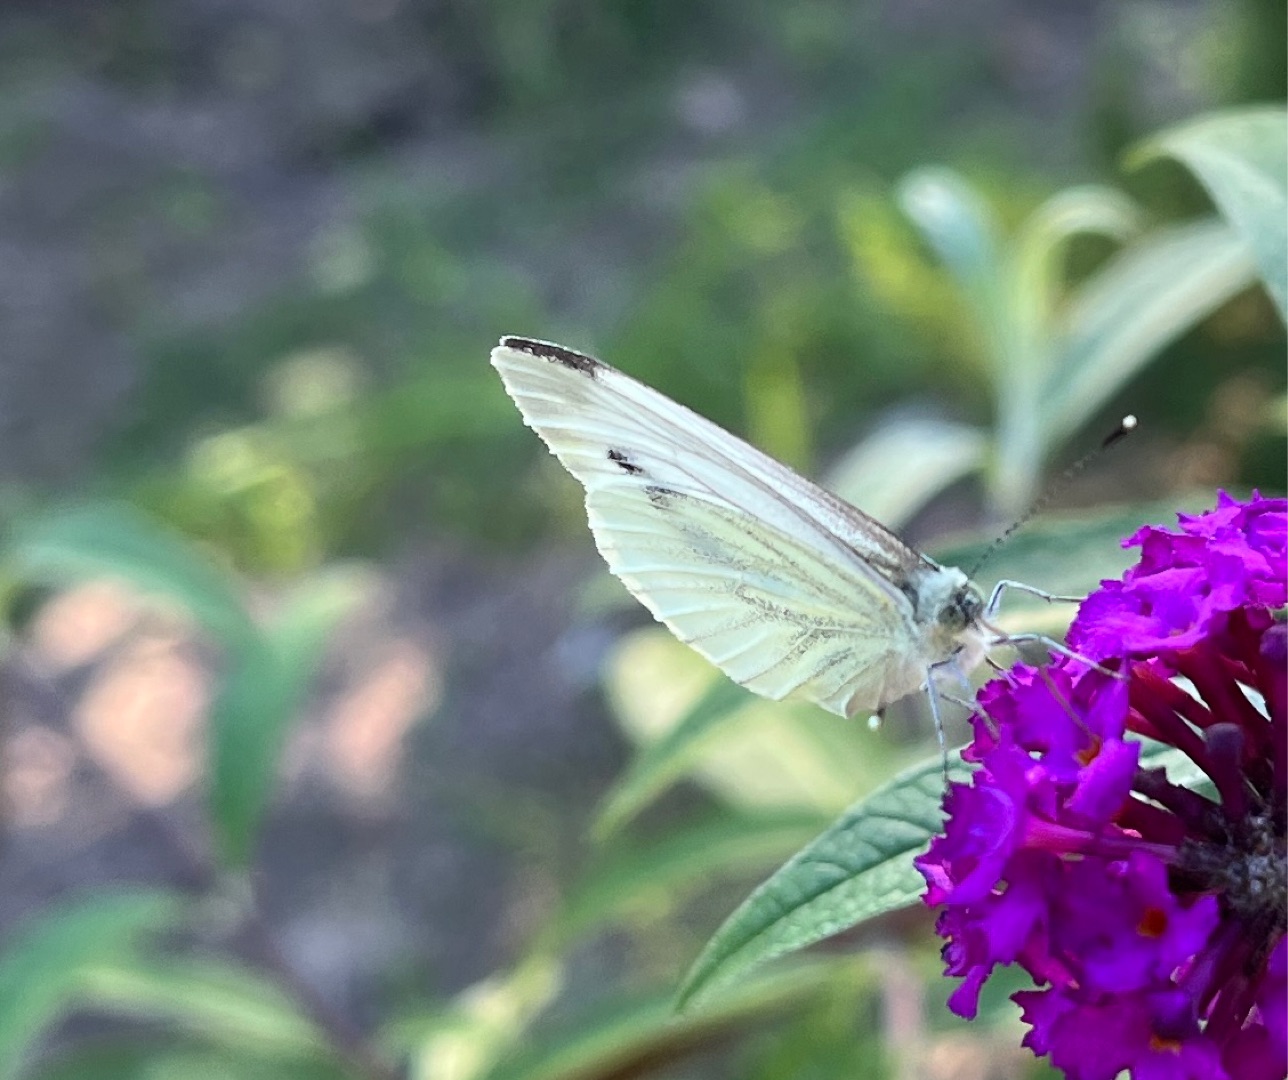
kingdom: Animalia
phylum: Arthropoda
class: Insecta
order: Lepidoptera
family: Pieridae
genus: Pieris
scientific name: Pieris napi
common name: Grønåret kålsommerfugl
